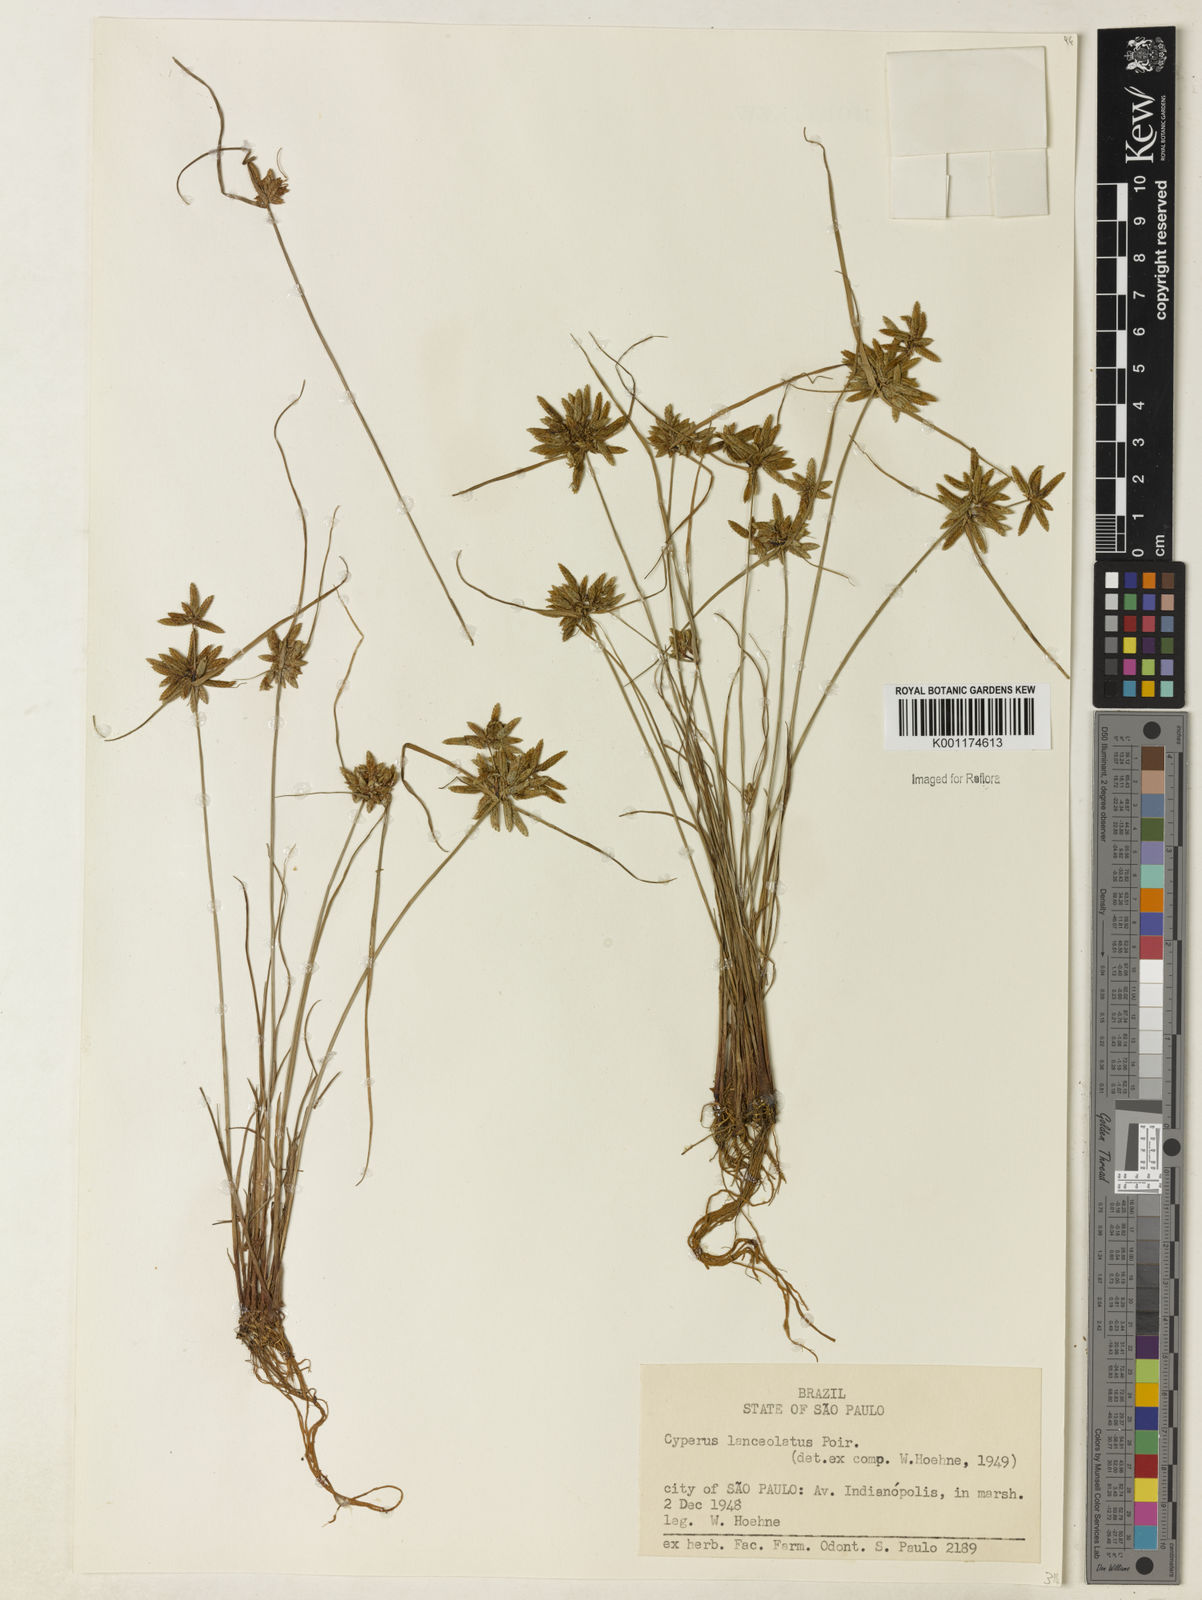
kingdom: Plantae
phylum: Tracheophyta
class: Liliopsida
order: Poales
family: Cyperaceae
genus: Cyperus
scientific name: Cyperus flavescens
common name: Yellow galingale
